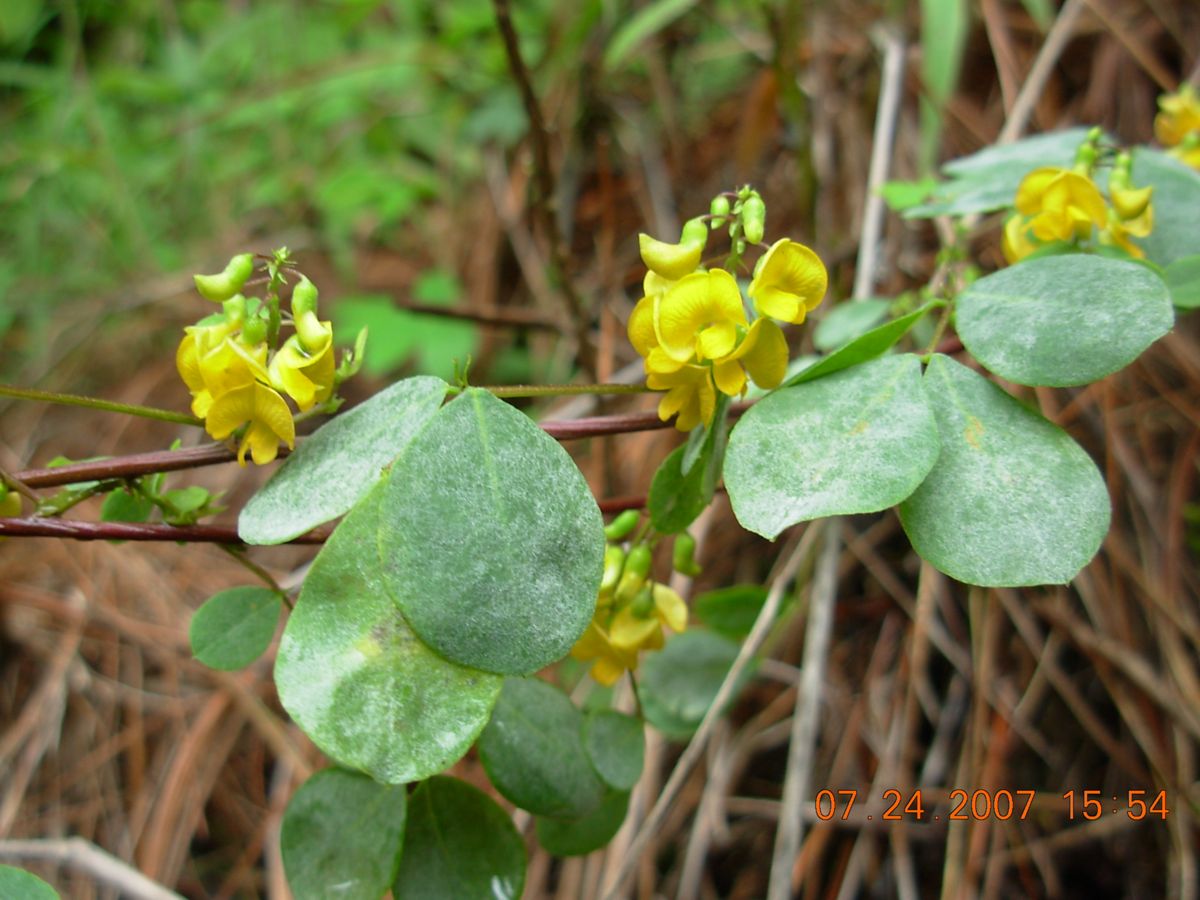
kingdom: Plantae
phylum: Tracheophyta
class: Magnoliopsida
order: Fabales
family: Fabaceae
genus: Poiretia
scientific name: Poiretia punctata
